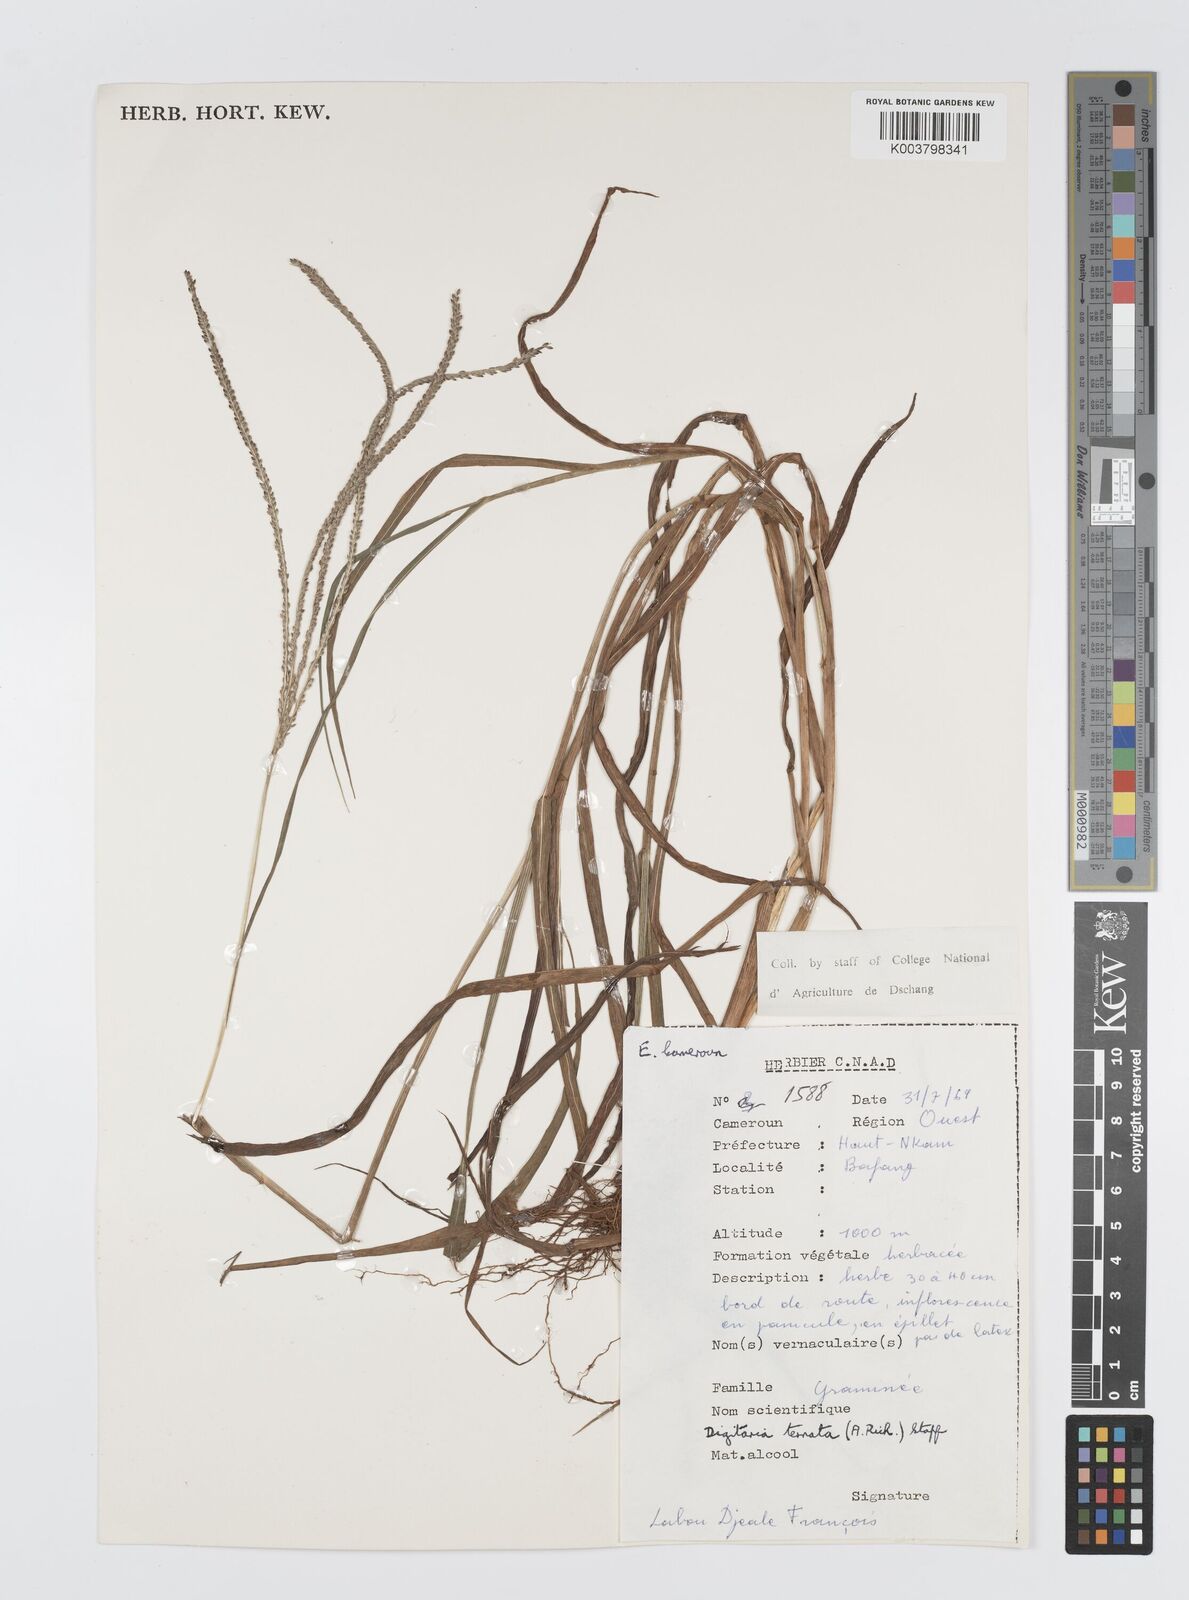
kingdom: Plantae
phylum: Tracheophyta
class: Liliopsida
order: Poales
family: Poaceae
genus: Digitaria
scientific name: Digitaria ternata
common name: Blackseed crabgrass
